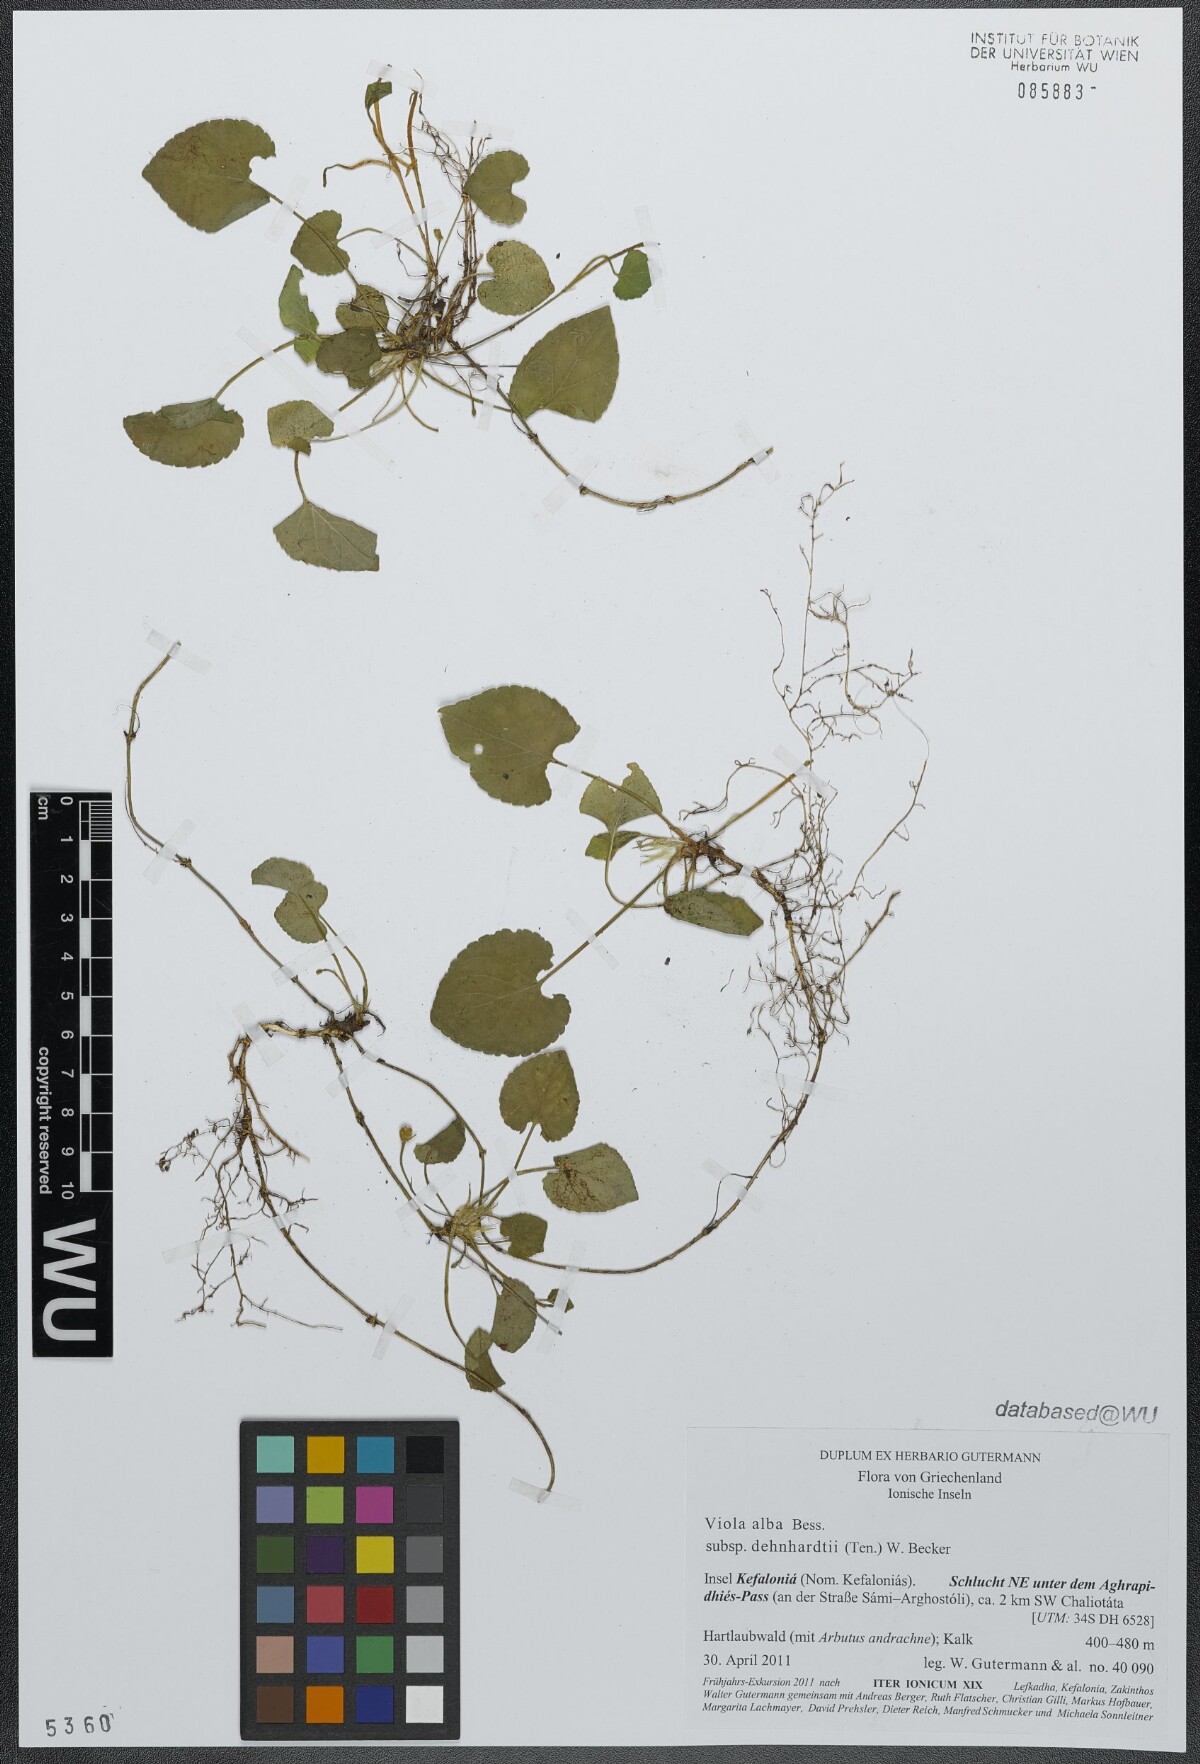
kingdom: Plantae
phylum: Tracheophyta
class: Magnoliopsida
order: Malpighiales
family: Violaceae
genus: Viola
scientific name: Viola alba
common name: White violet
